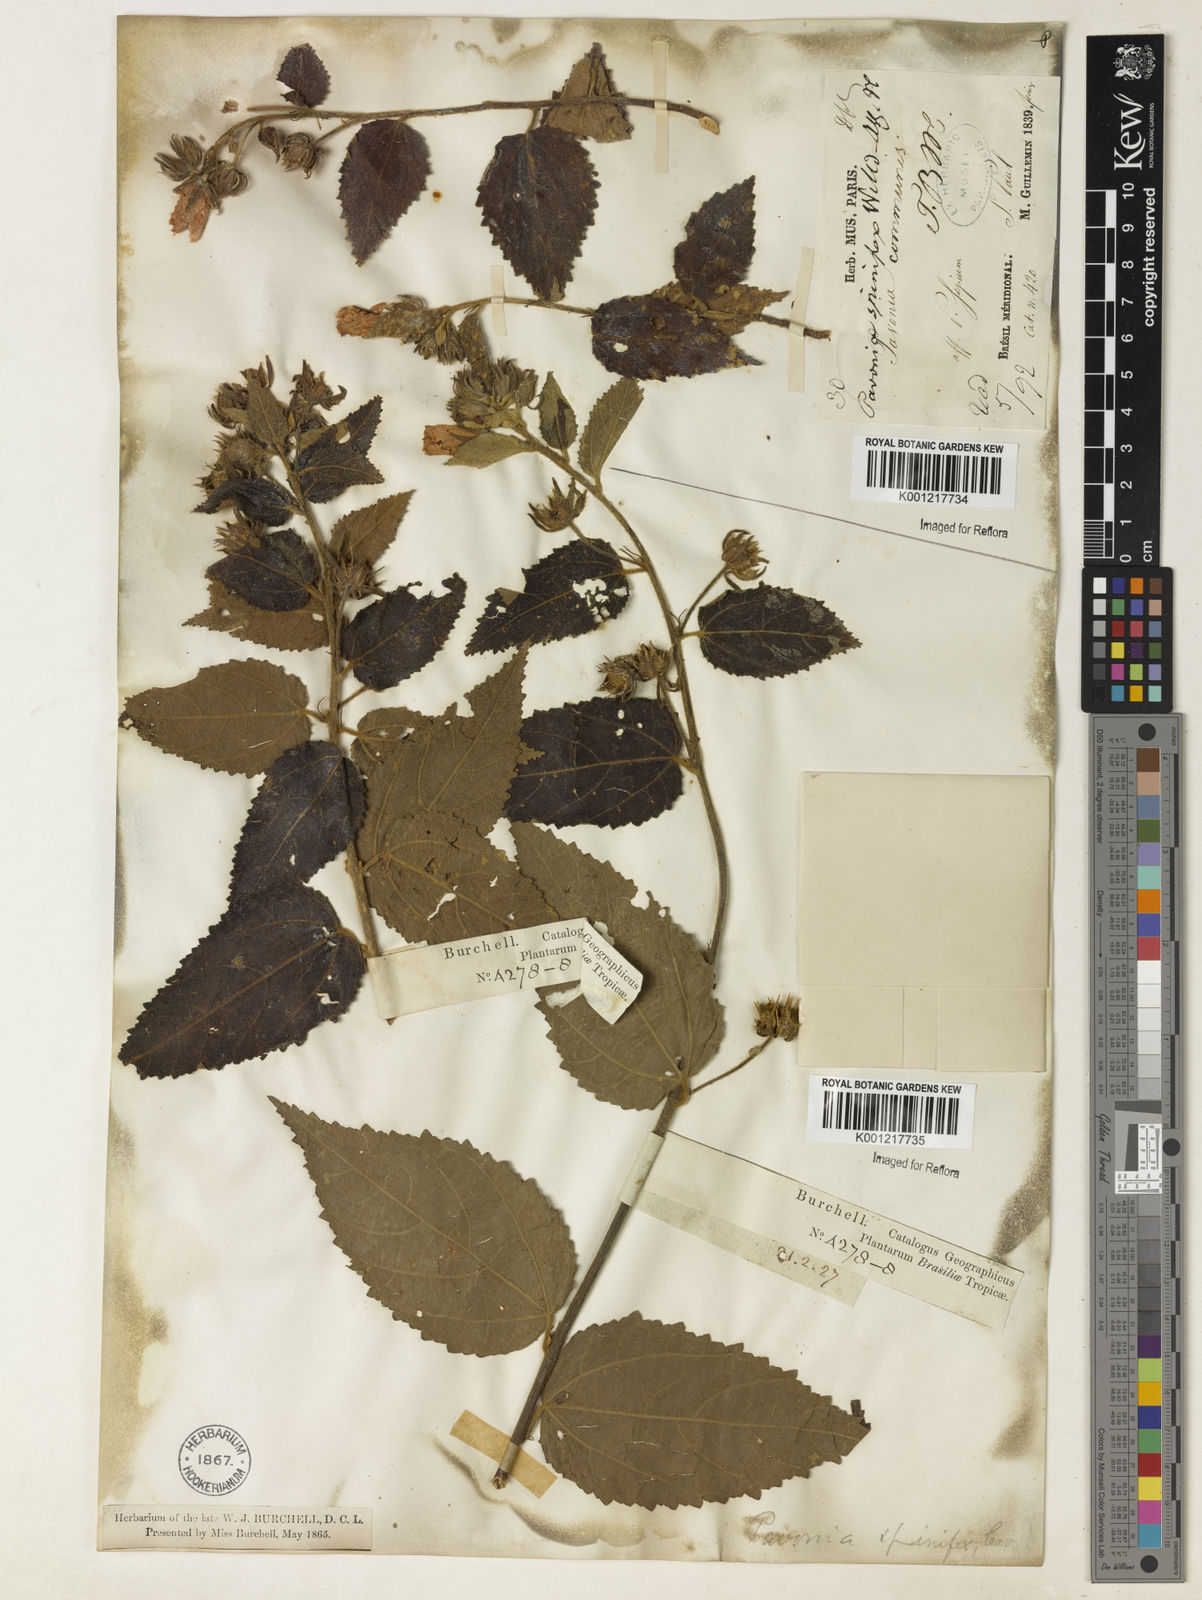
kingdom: Plantae
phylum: Tracheophyta
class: Magnoliopsida
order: Malvales
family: Malvaceae
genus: Pavonia
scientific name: Pavonia spinifex
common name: Ginger bush
